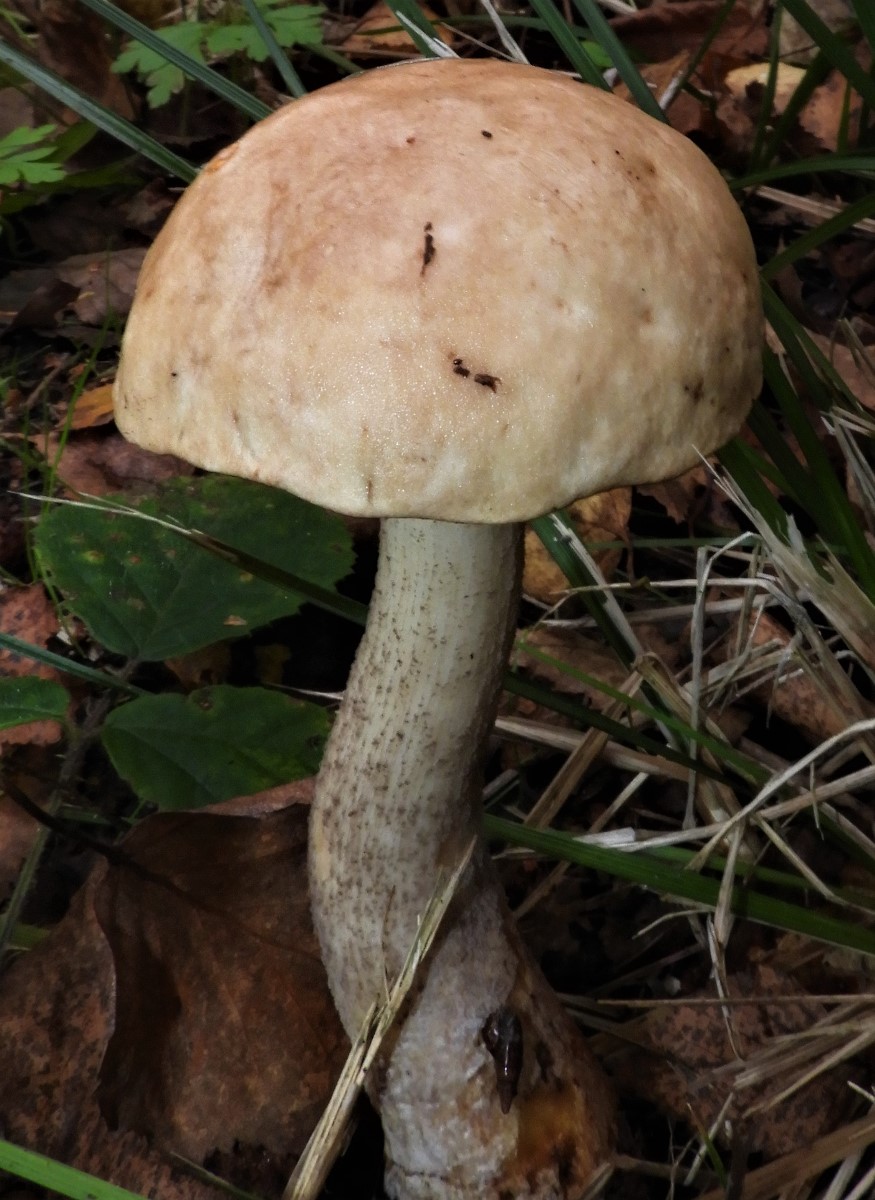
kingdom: Fungi
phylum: Basidiomycota
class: Agaricomycetes
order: Boletales
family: Boletaceae
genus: Leccinum
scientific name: Leccinum
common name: skælrørhat
